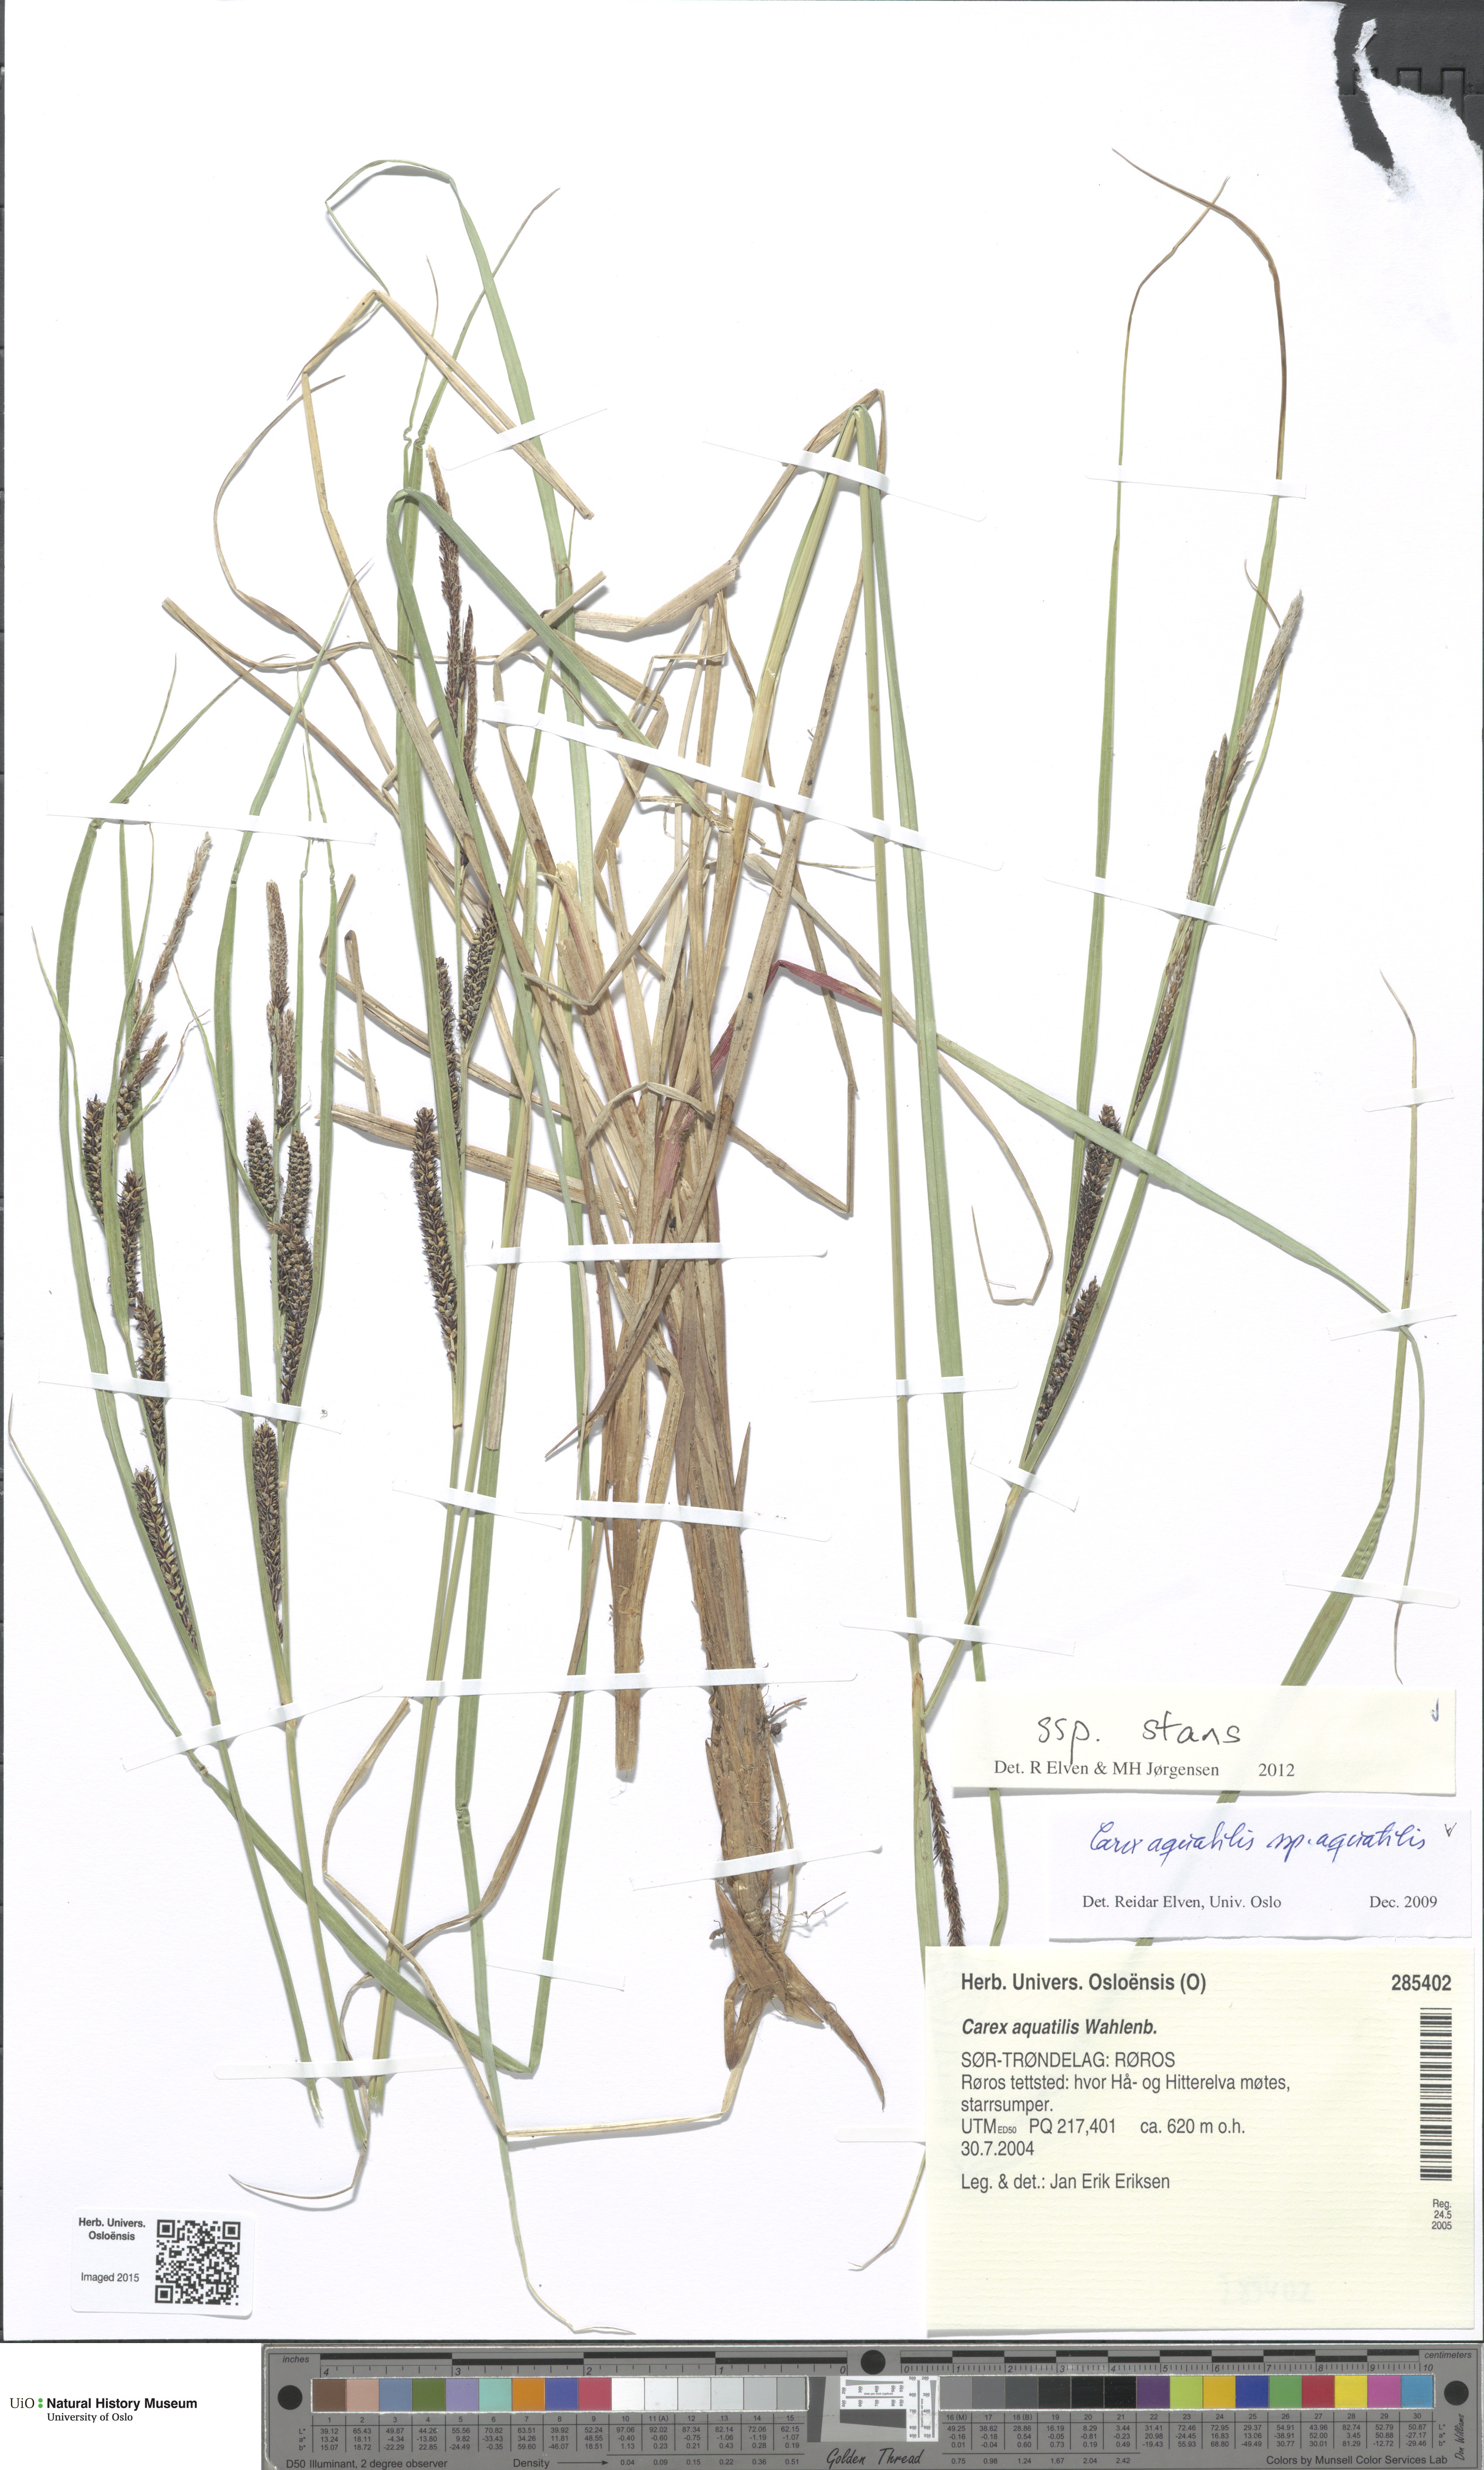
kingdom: Plantae
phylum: Tracheophyta
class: Liliopsida
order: Poales
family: Cyperaceae
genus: Carex
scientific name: Carex aquatilis
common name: Water sedge
